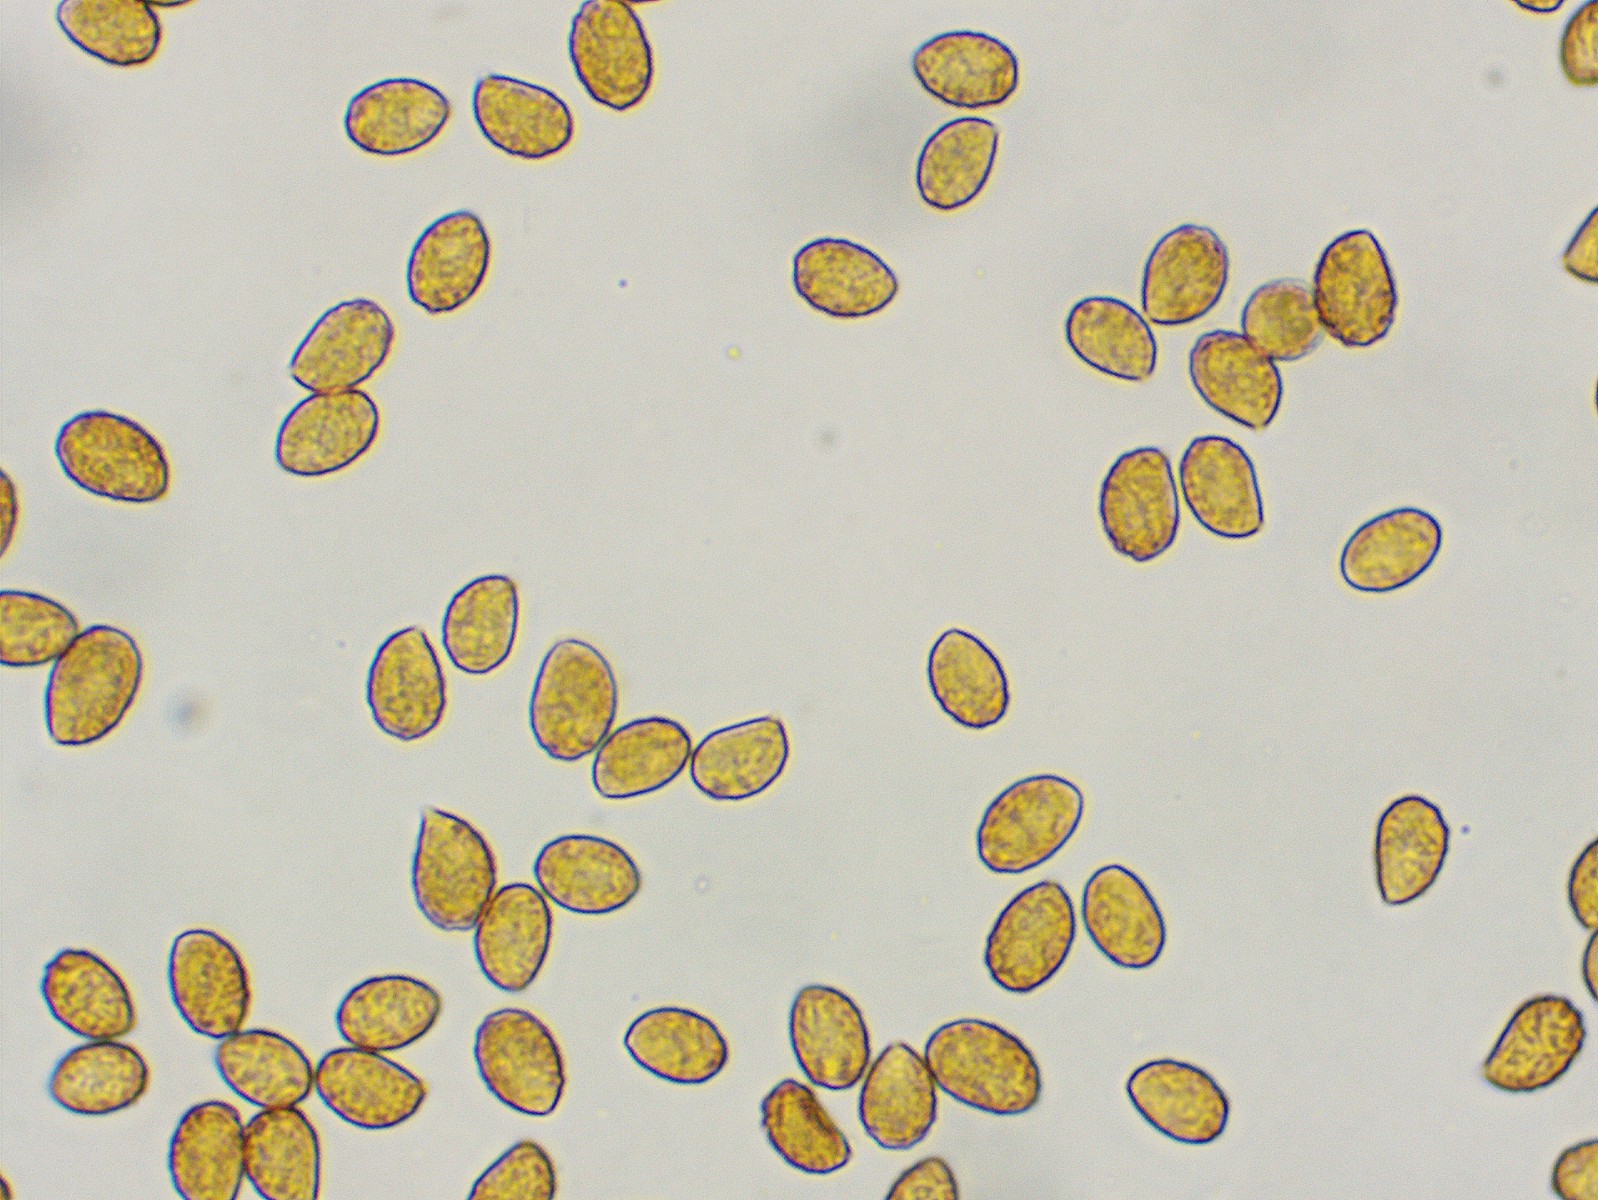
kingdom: Fungi
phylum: Basidiomycota
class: Agaricomycetes
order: Agaricales
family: Cortinariaceae
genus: Cortinarius
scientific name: Cortinarius decipiens
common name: mørkpuklet slørhat
